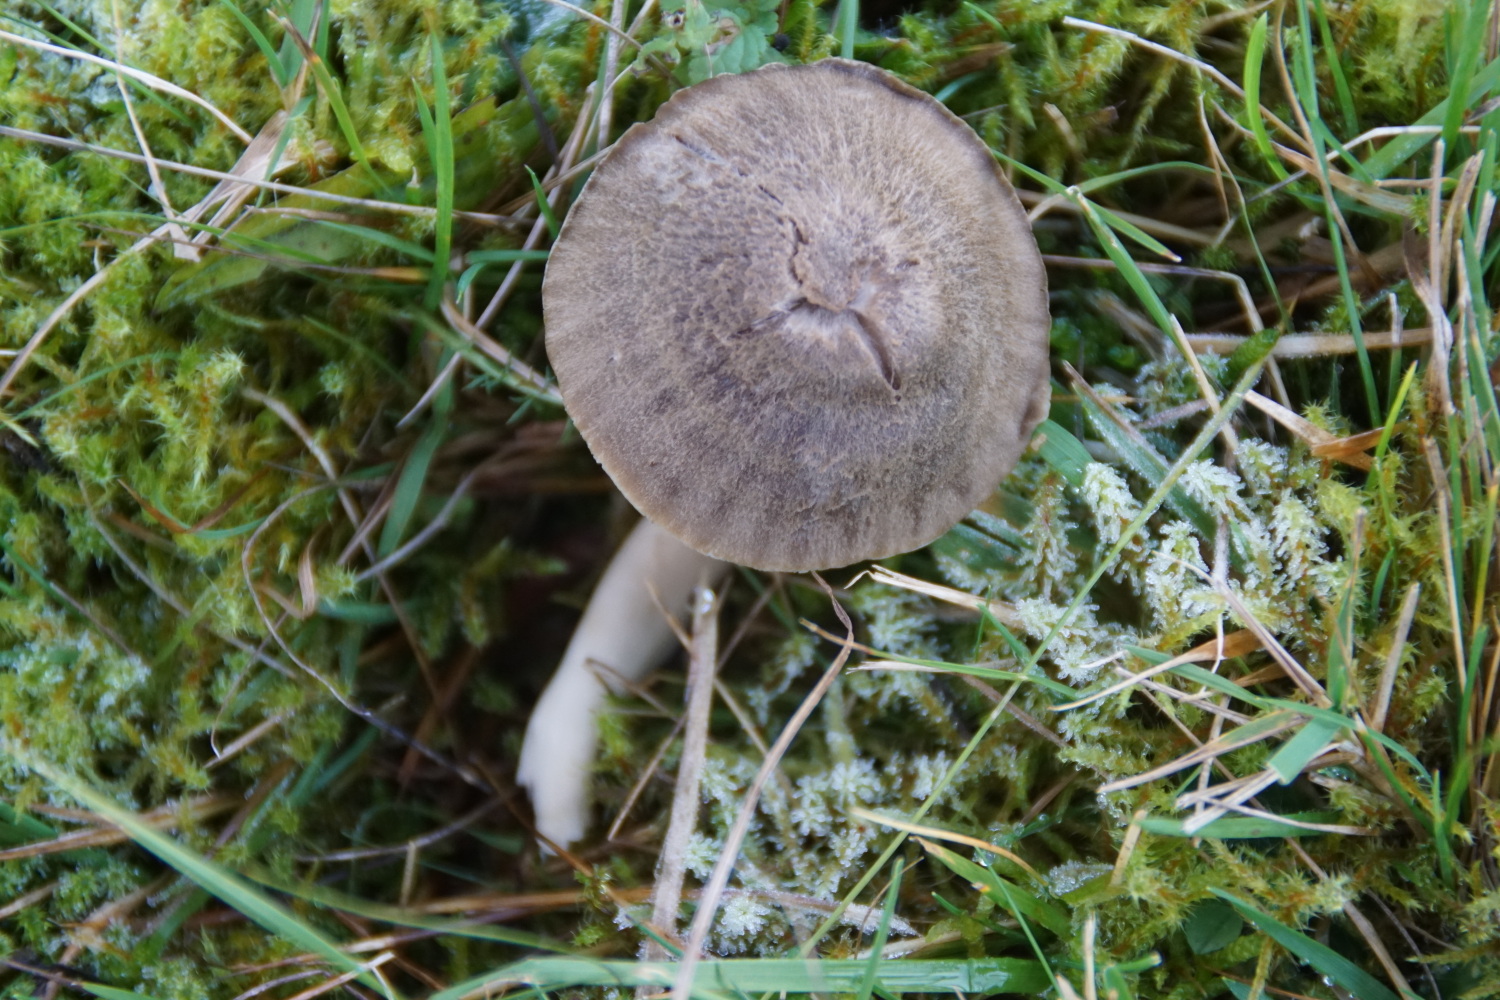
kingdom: Fungi
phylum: Basidiomycota
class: Agaricomycetes
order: Agaricales
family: Hygrophoraceae
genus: Neohygrocybe
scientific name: Neohygrocybe nitrata
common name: stinkende vokshat
